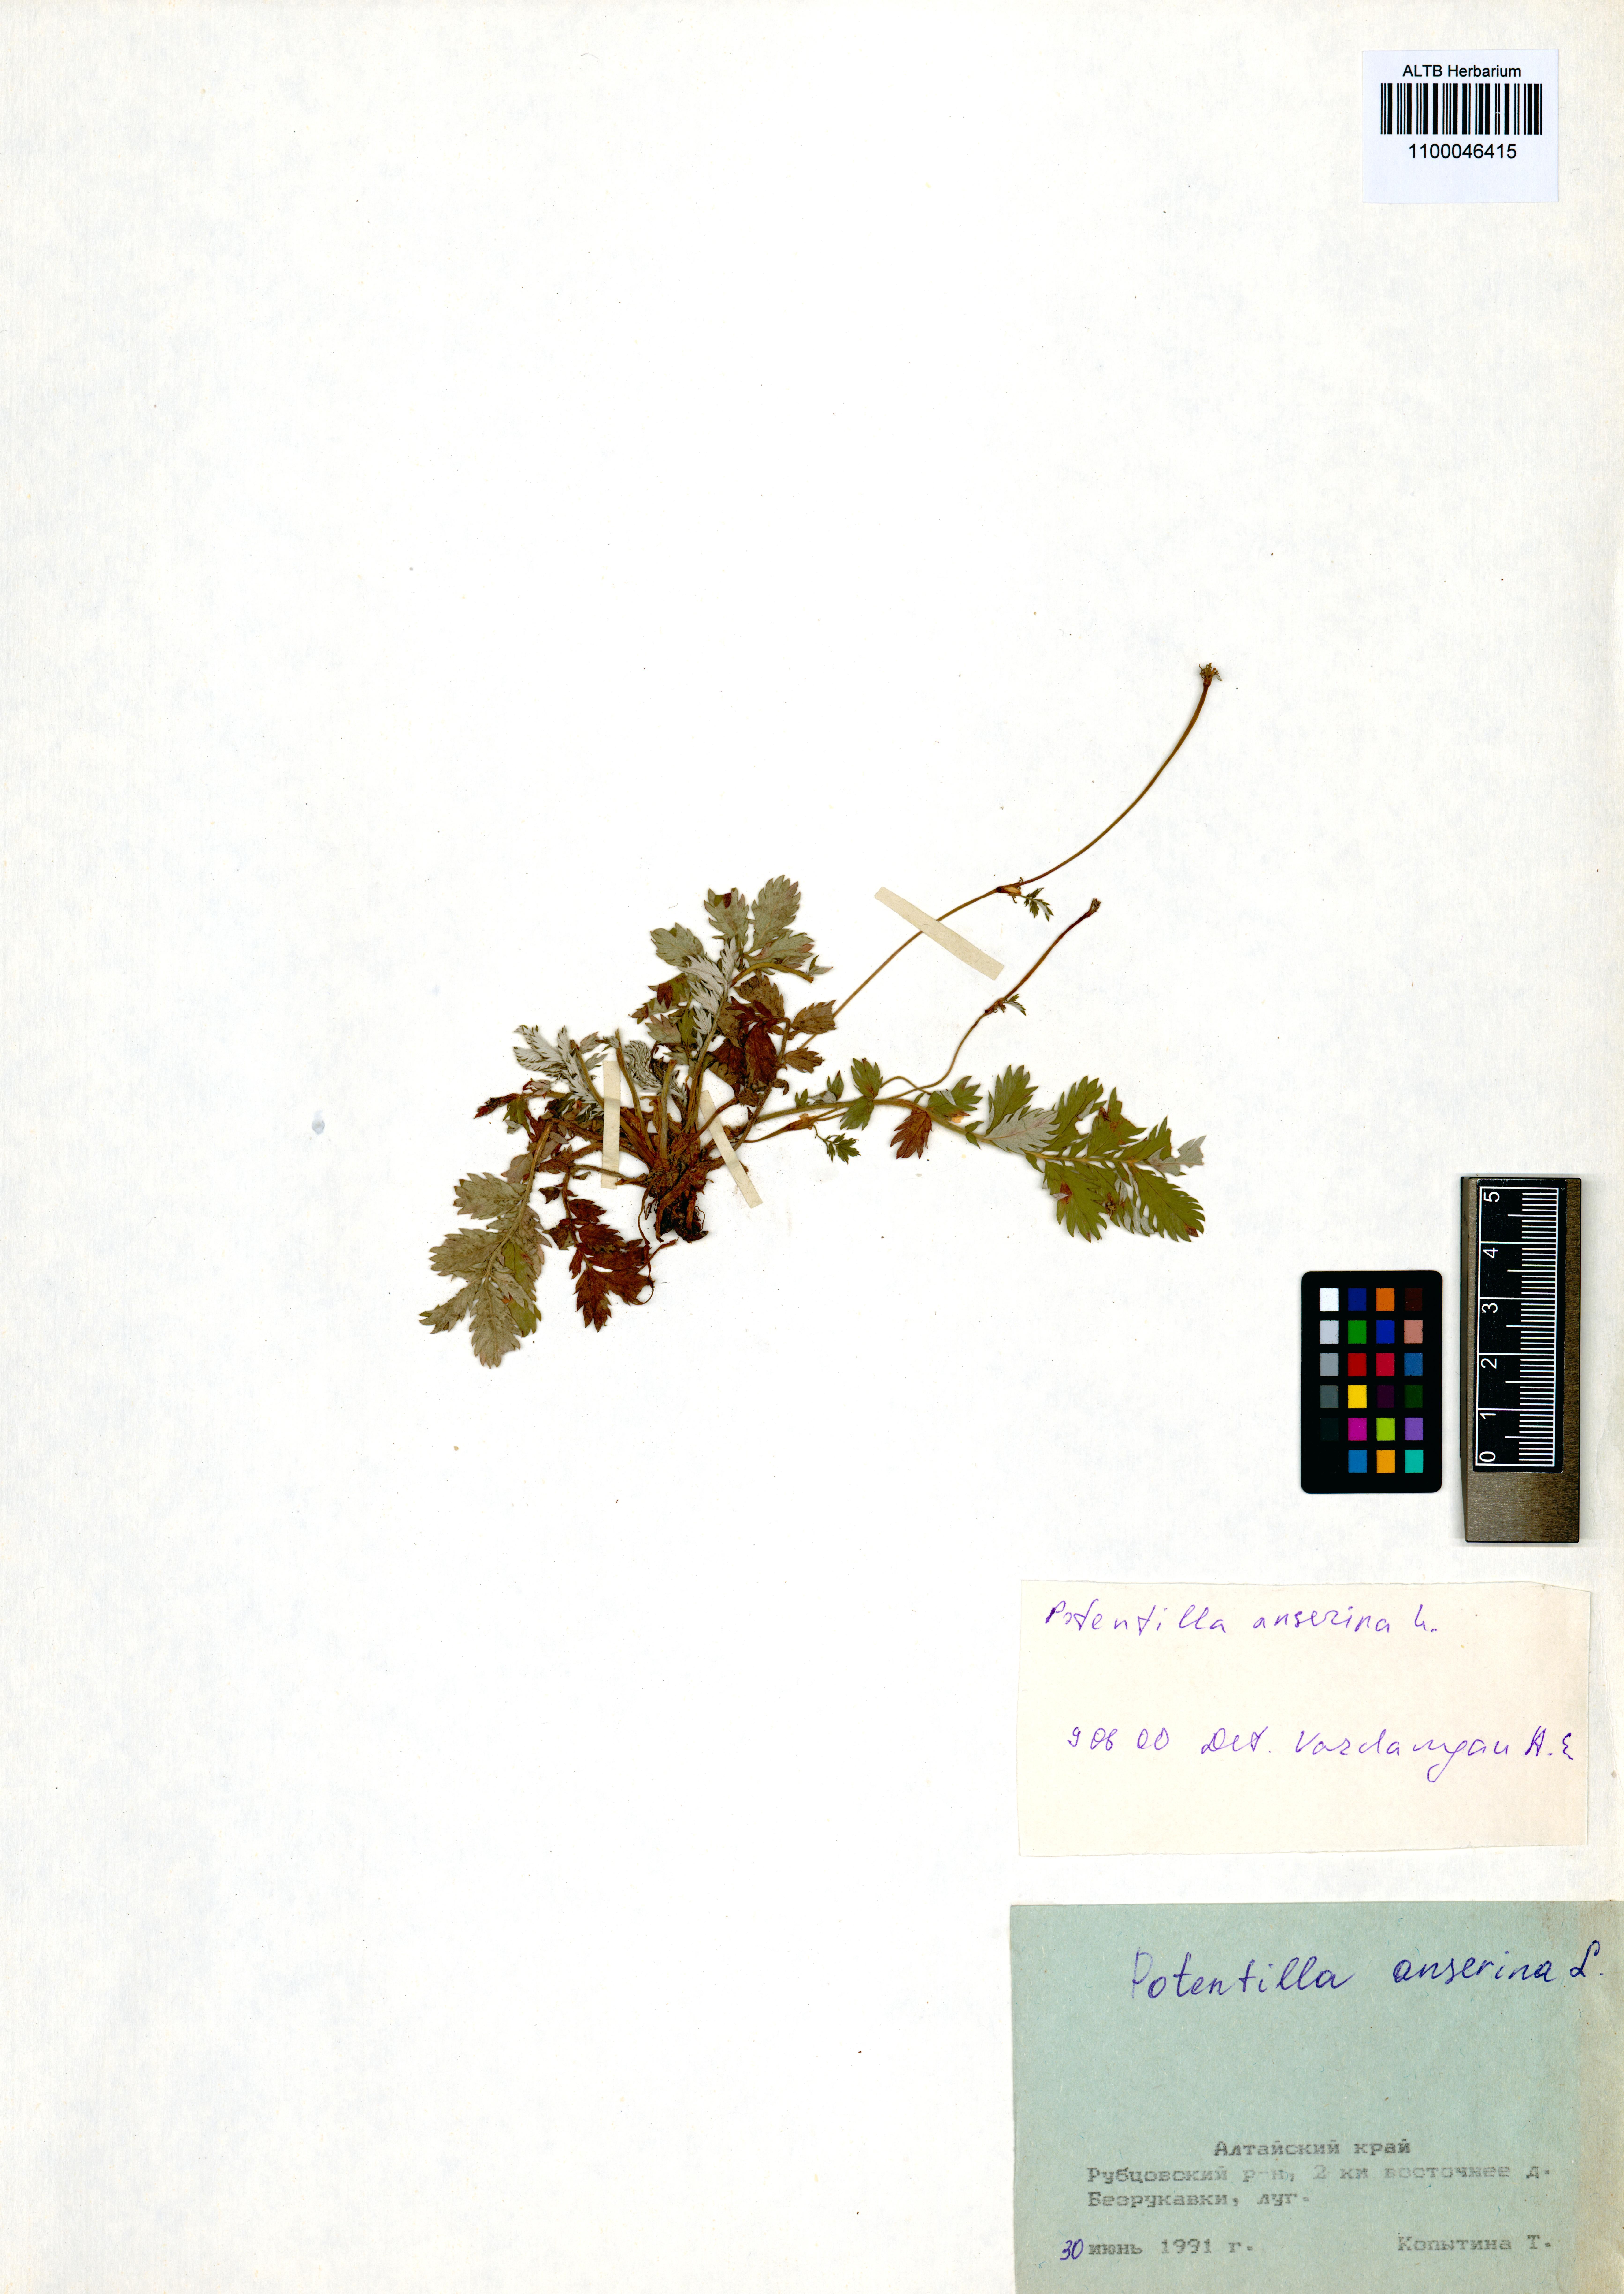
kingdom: Plantae
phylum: Tracheophyta
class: Magnoliopsida
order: Rosales
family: Rosaceae
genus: Argentina
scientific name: Argentina anserina
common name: Common silverweed
